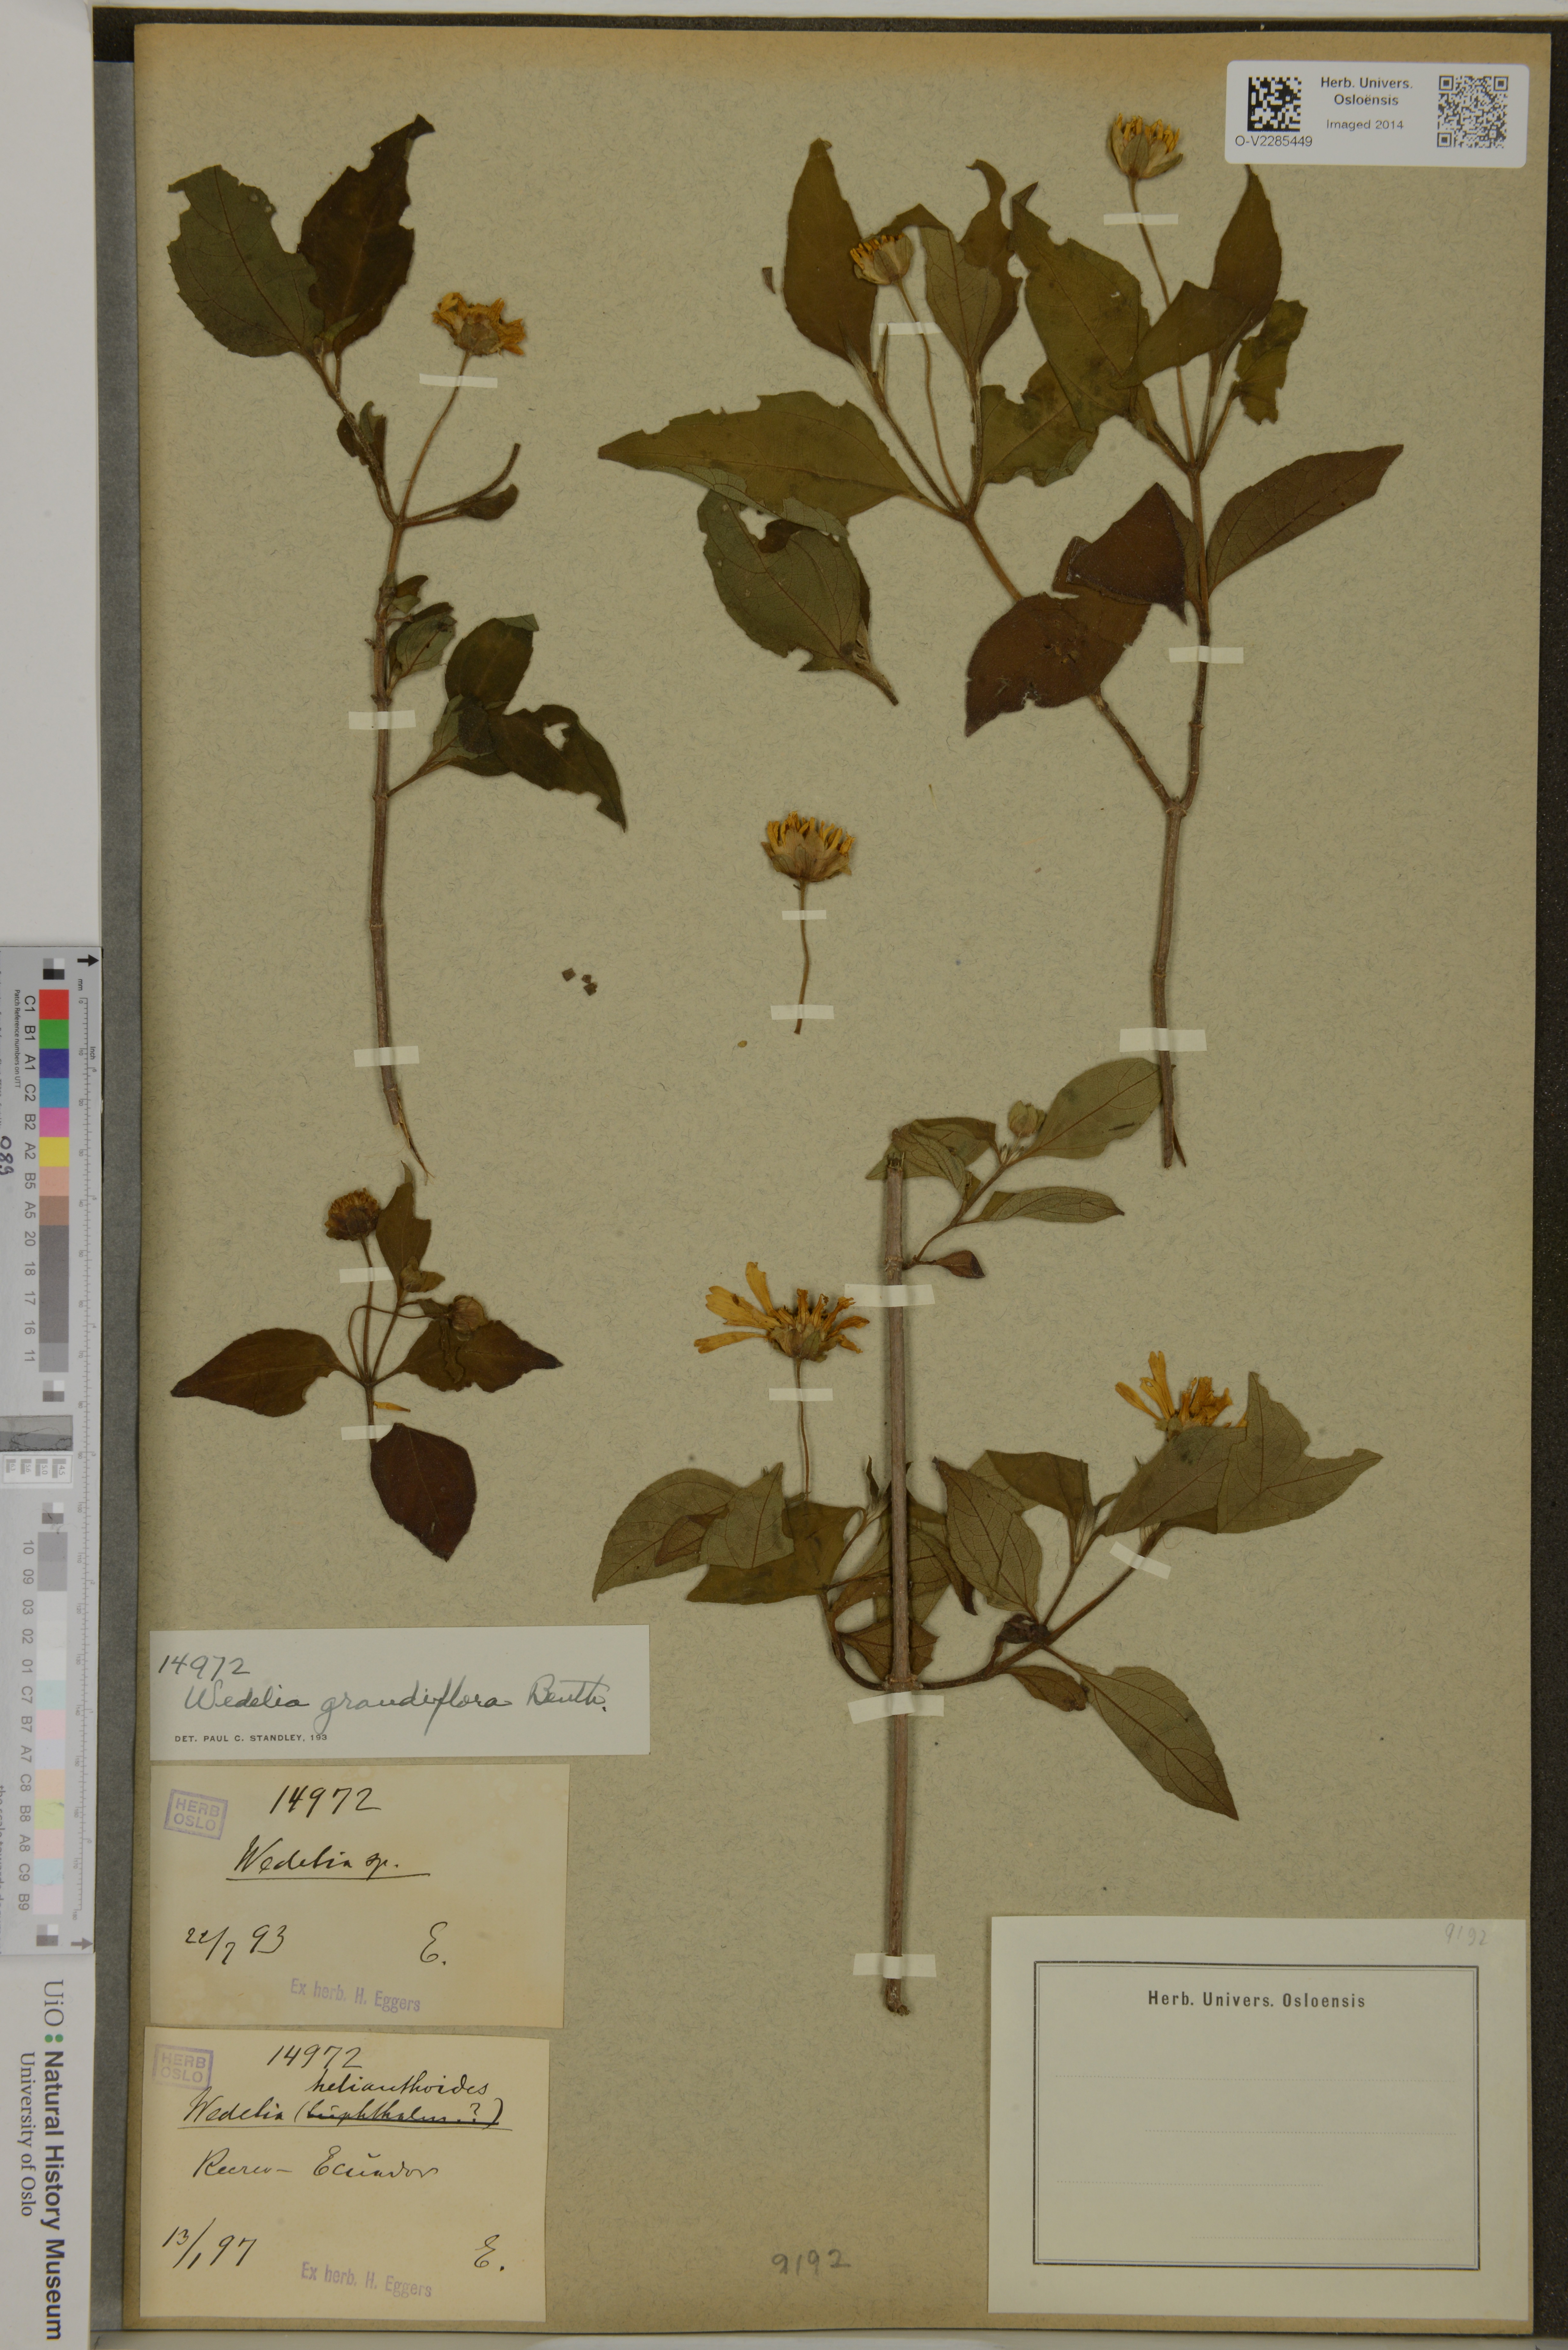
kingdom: Plantae
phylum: Tracheophyta
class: Magnoliopsida
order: Asterales
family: Asteraceae
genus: Wedelia
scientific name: Wedelia grandiflora
